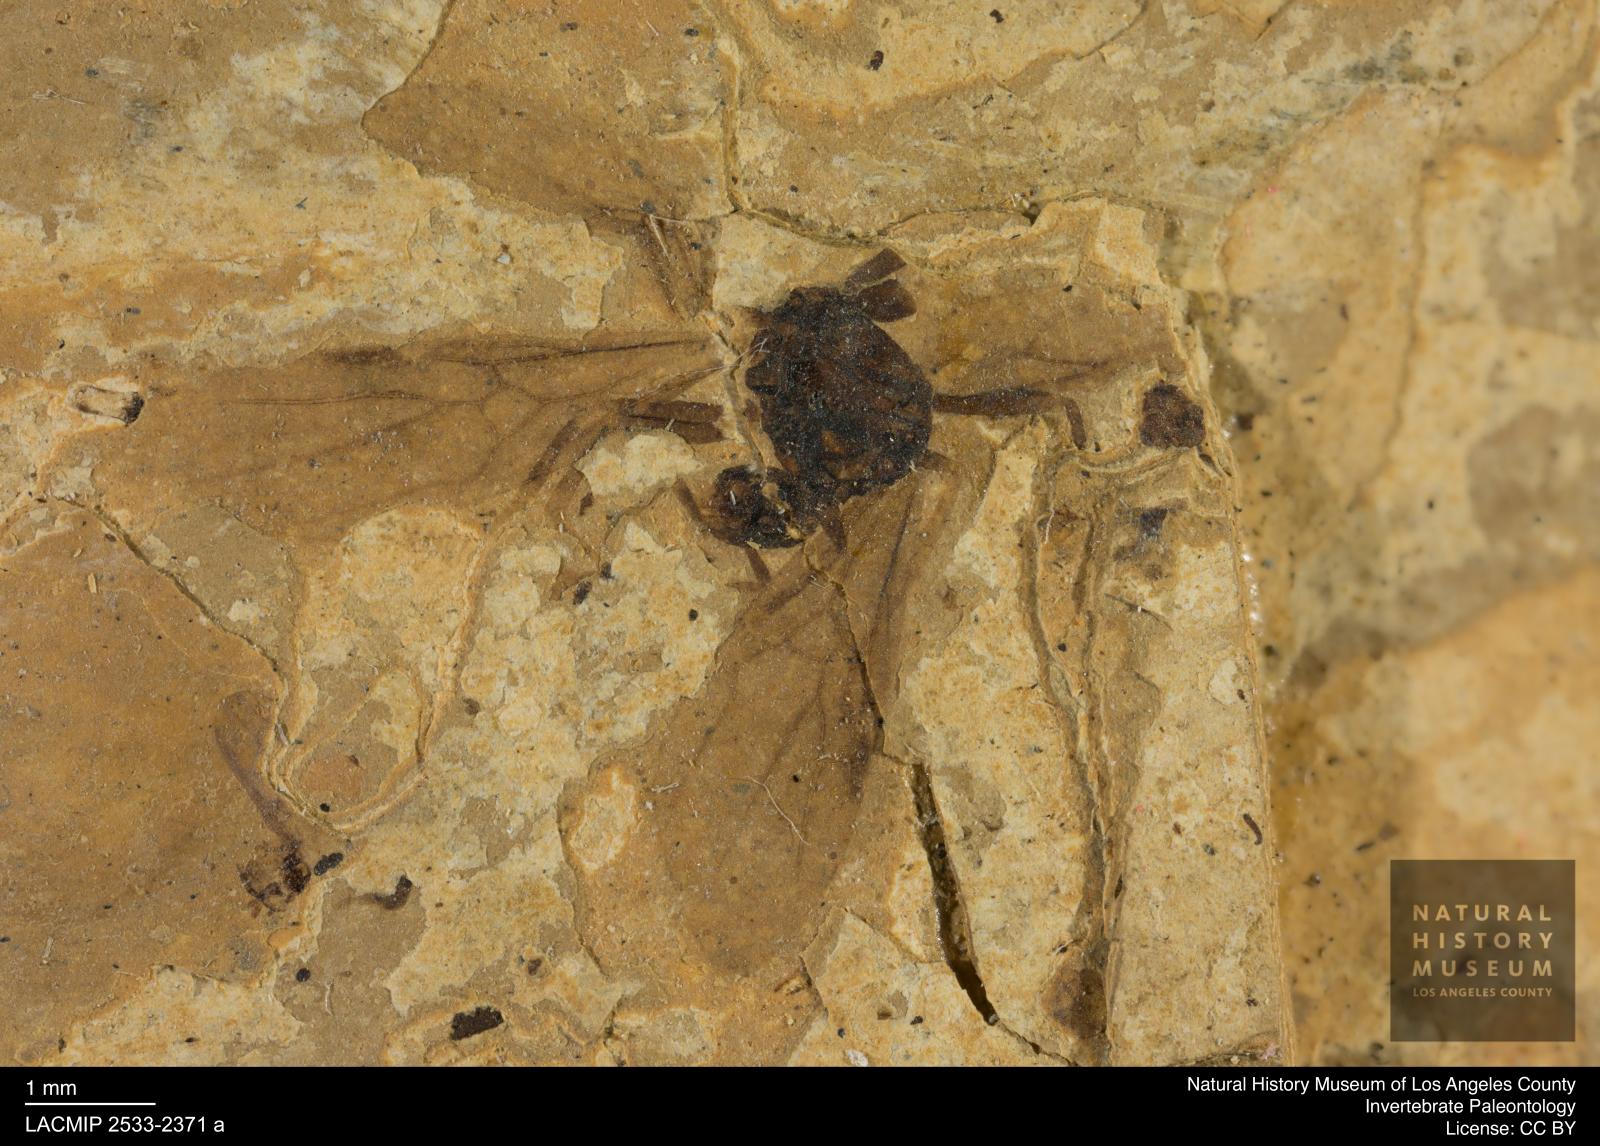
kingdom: Animalia
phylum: Arthropoda
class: Insecta
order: Hymenoptera
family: Formicidae
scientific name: Formicidae
